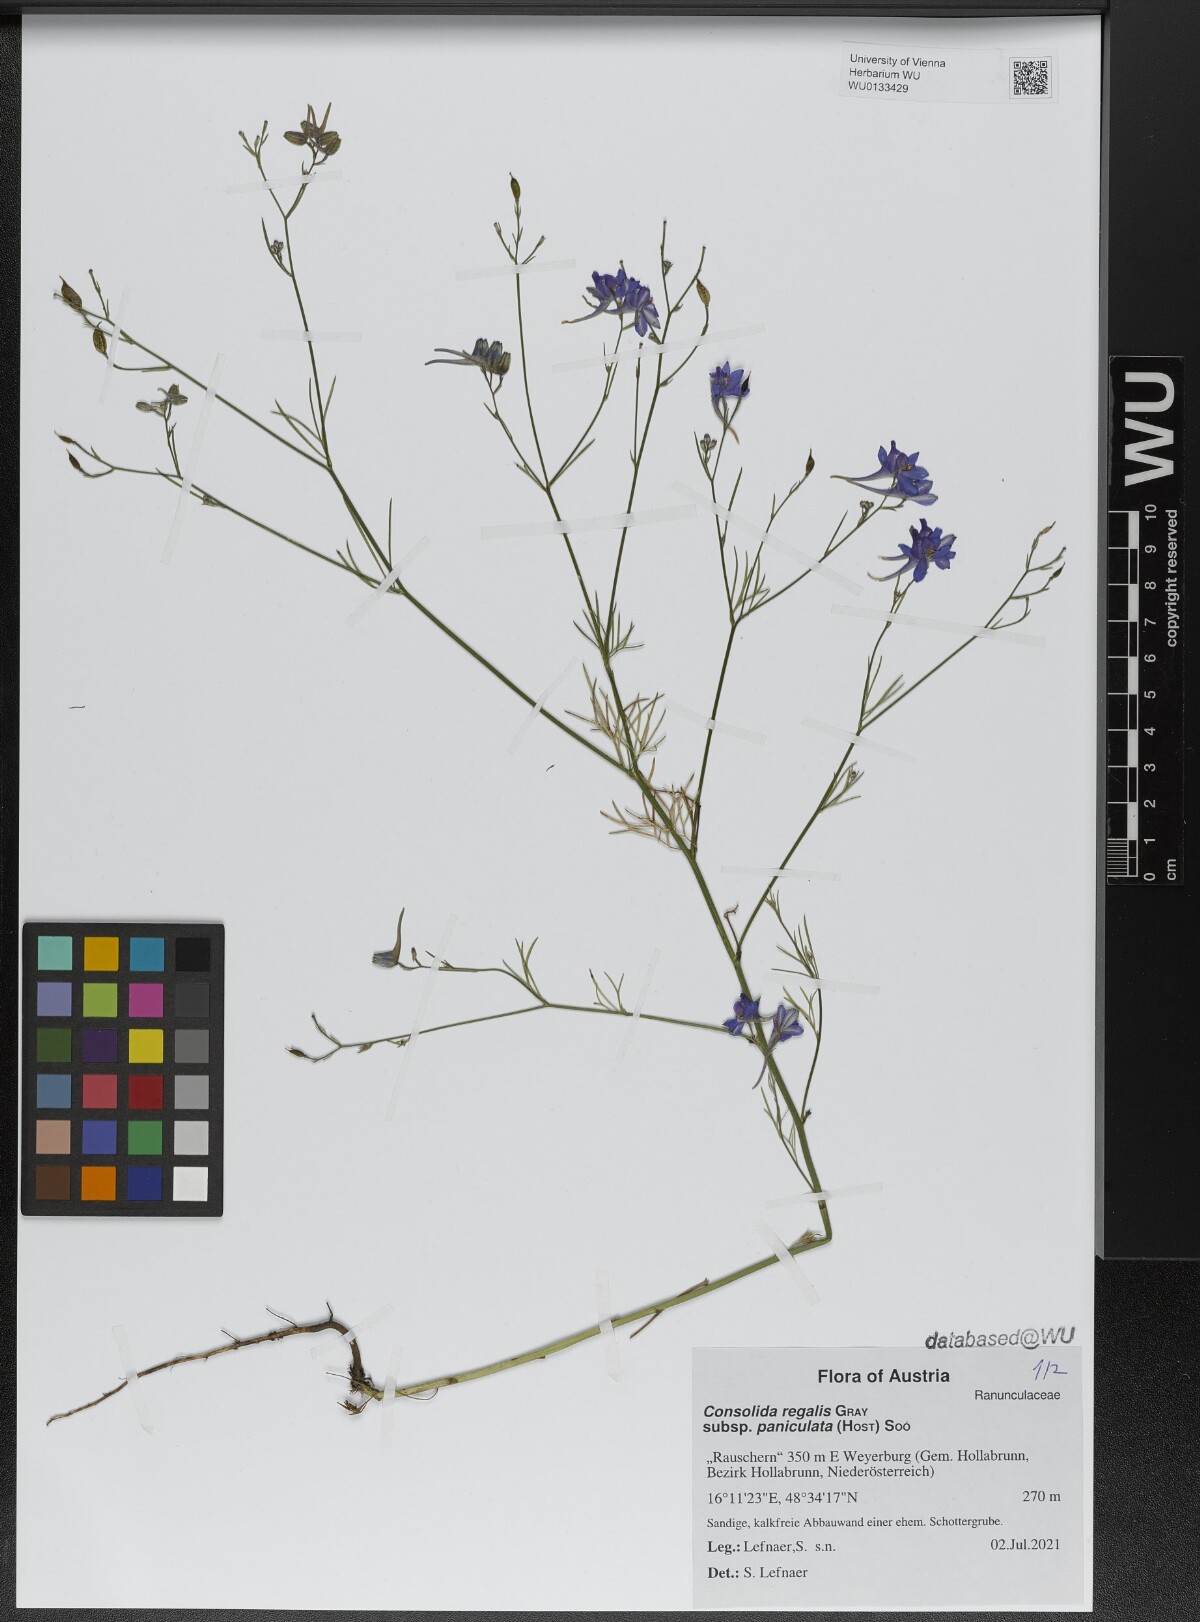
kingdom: Plantae
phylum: Tracheophyta
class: Magnoliopsida
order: Ranunculales
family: Ranunculaceae
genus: Delphinium
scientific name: Delphinium consolida
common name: Branching larkspur
